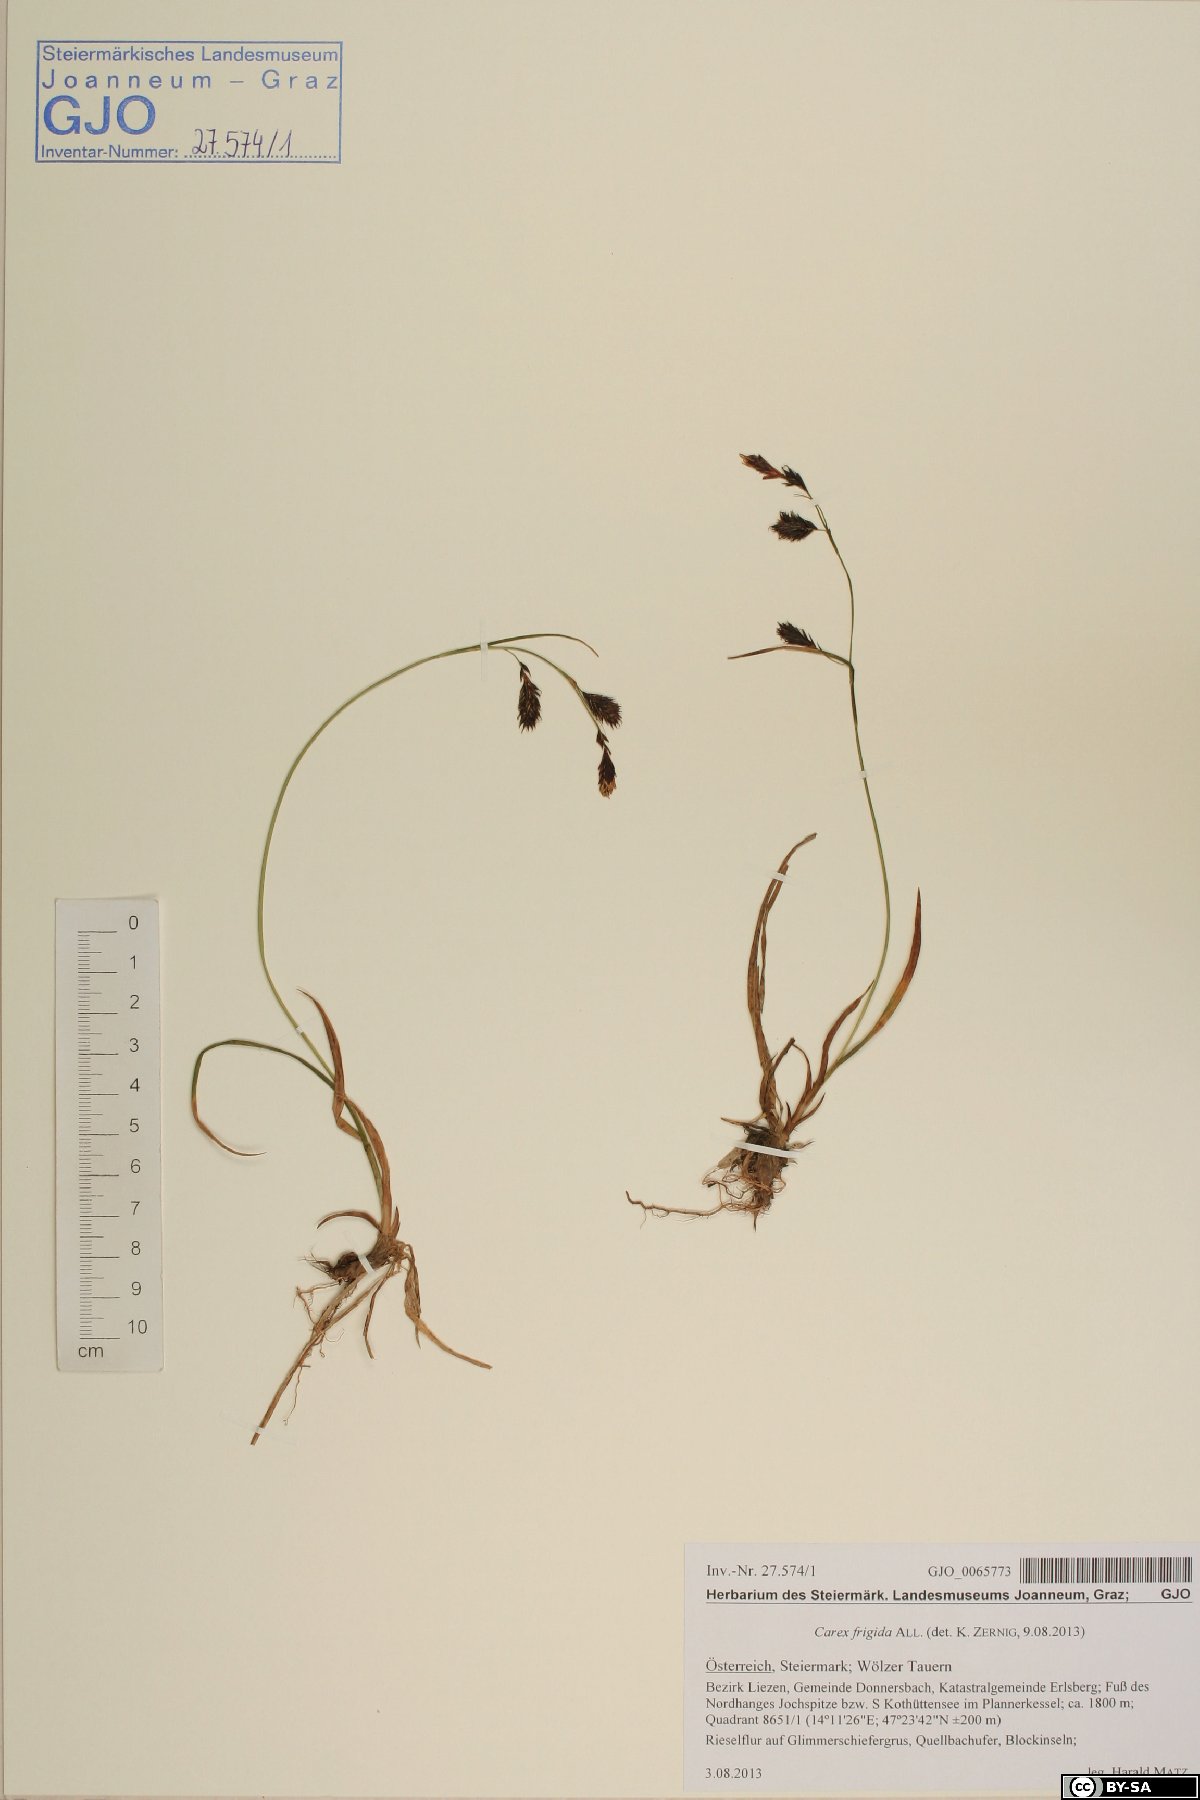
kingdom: Plantae
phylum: Tracheophyta
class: Liliopsida
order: Poales
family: Cyperaceae
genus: Carex
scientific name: Carex frigida
